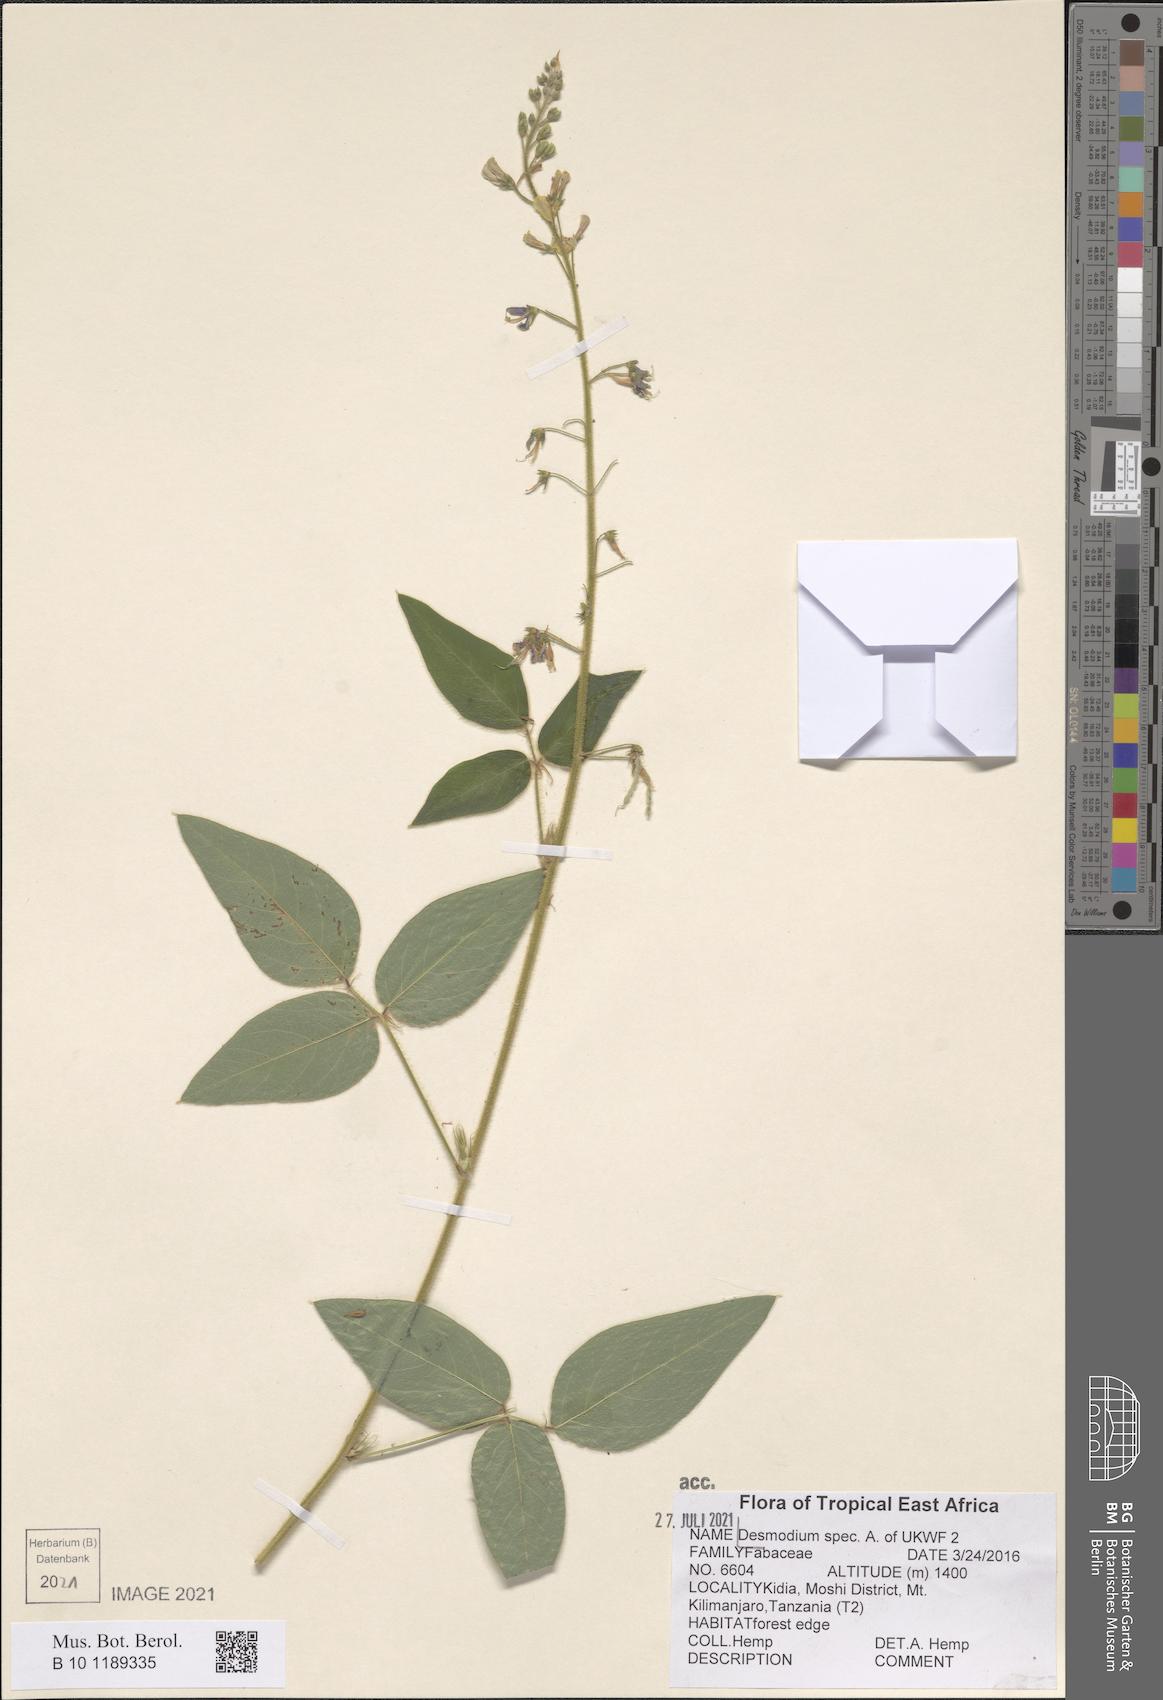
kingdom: Plantae
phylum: Tracheophyta
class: Magnoliopsida
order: Fabales
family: Fabaceae
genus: Desmodium
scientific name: Desmodium
